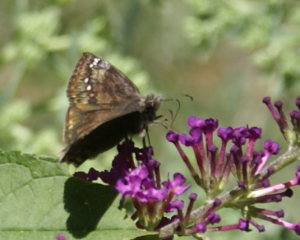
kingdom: Animalia
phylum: Arthropoda
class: Insecta
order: Lepidoptera
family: Hesperiidae
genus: Gesta
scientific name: Gesta
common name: Wild Indigo Duskywing
